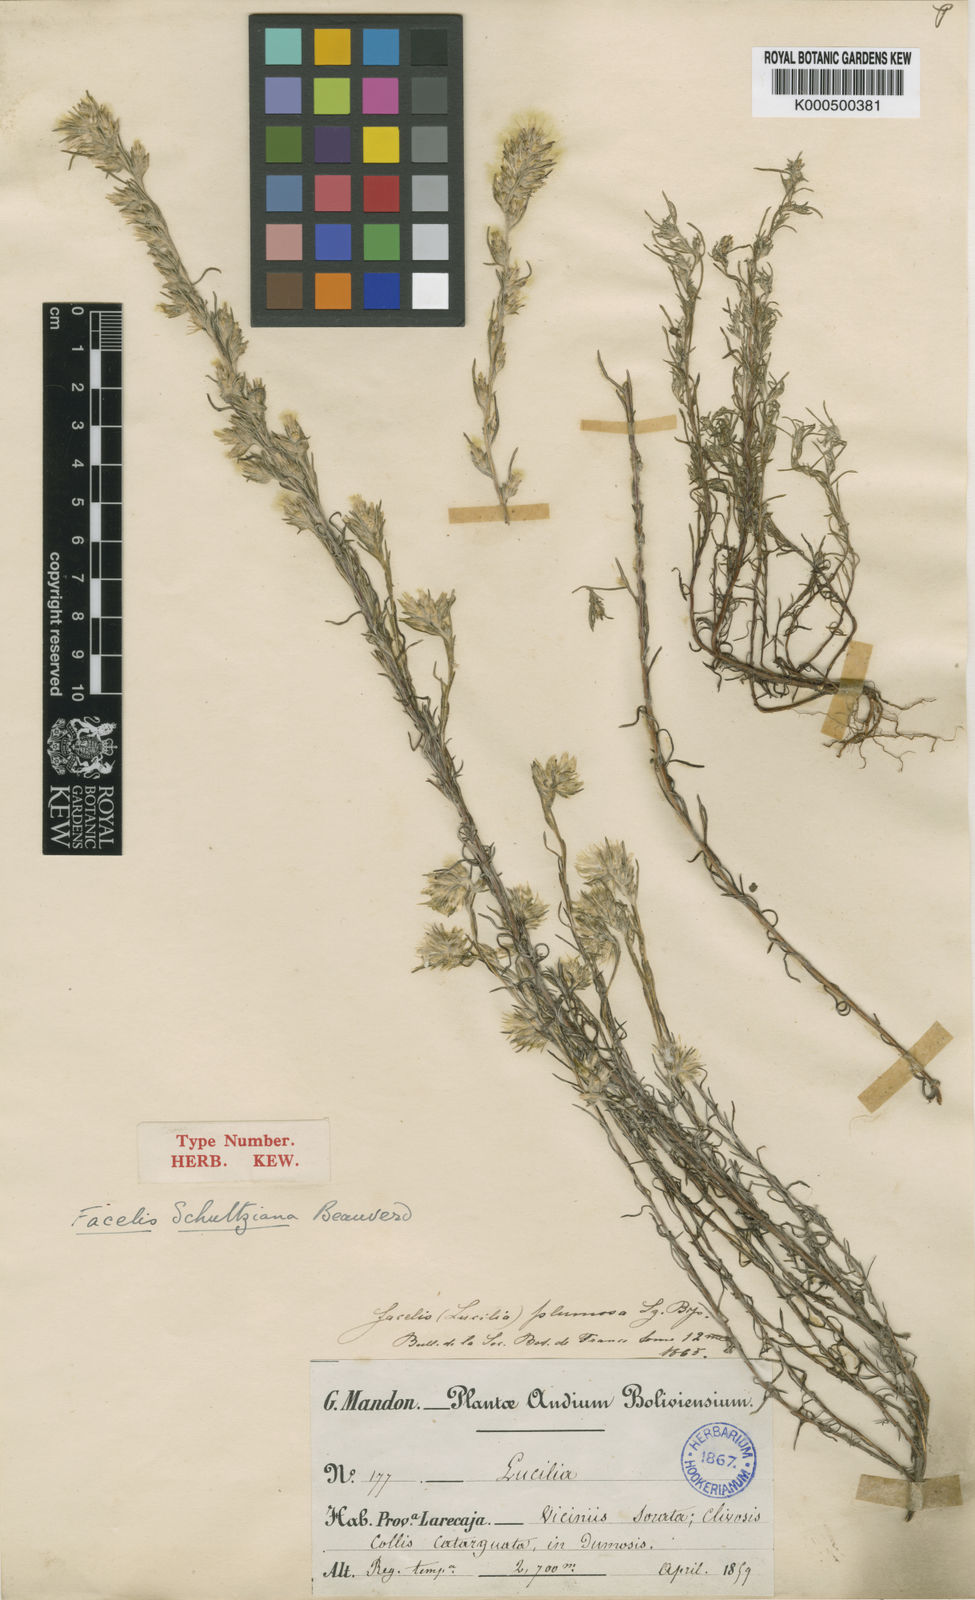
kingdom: Plantae
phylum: Tracheophyta
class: Magnoliopsida
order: Asterales
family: Asteraceae
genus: Facelis
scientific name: Facelis lasiocarpa
